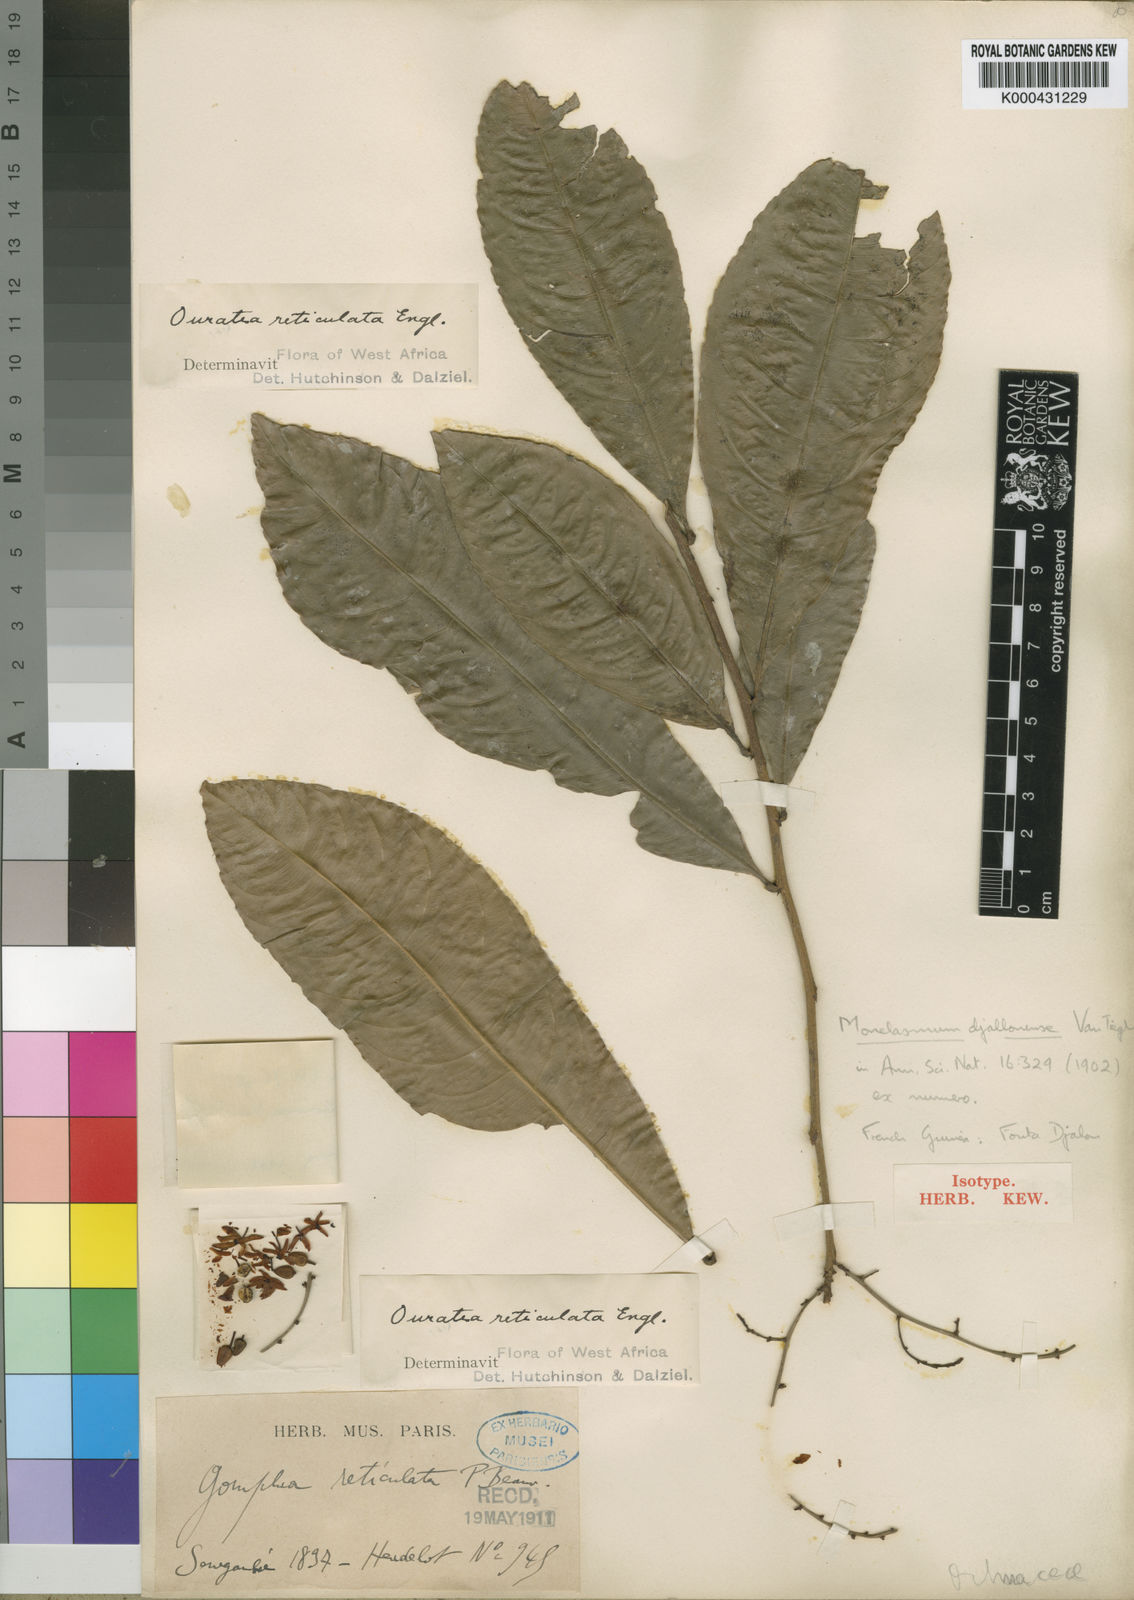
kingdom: Plantae
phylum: Tracheophyta
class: Magnoliopsida
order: Malpighiales
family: Ochnaceae
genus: Campylospermum
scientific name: Campylospermum squamosum
